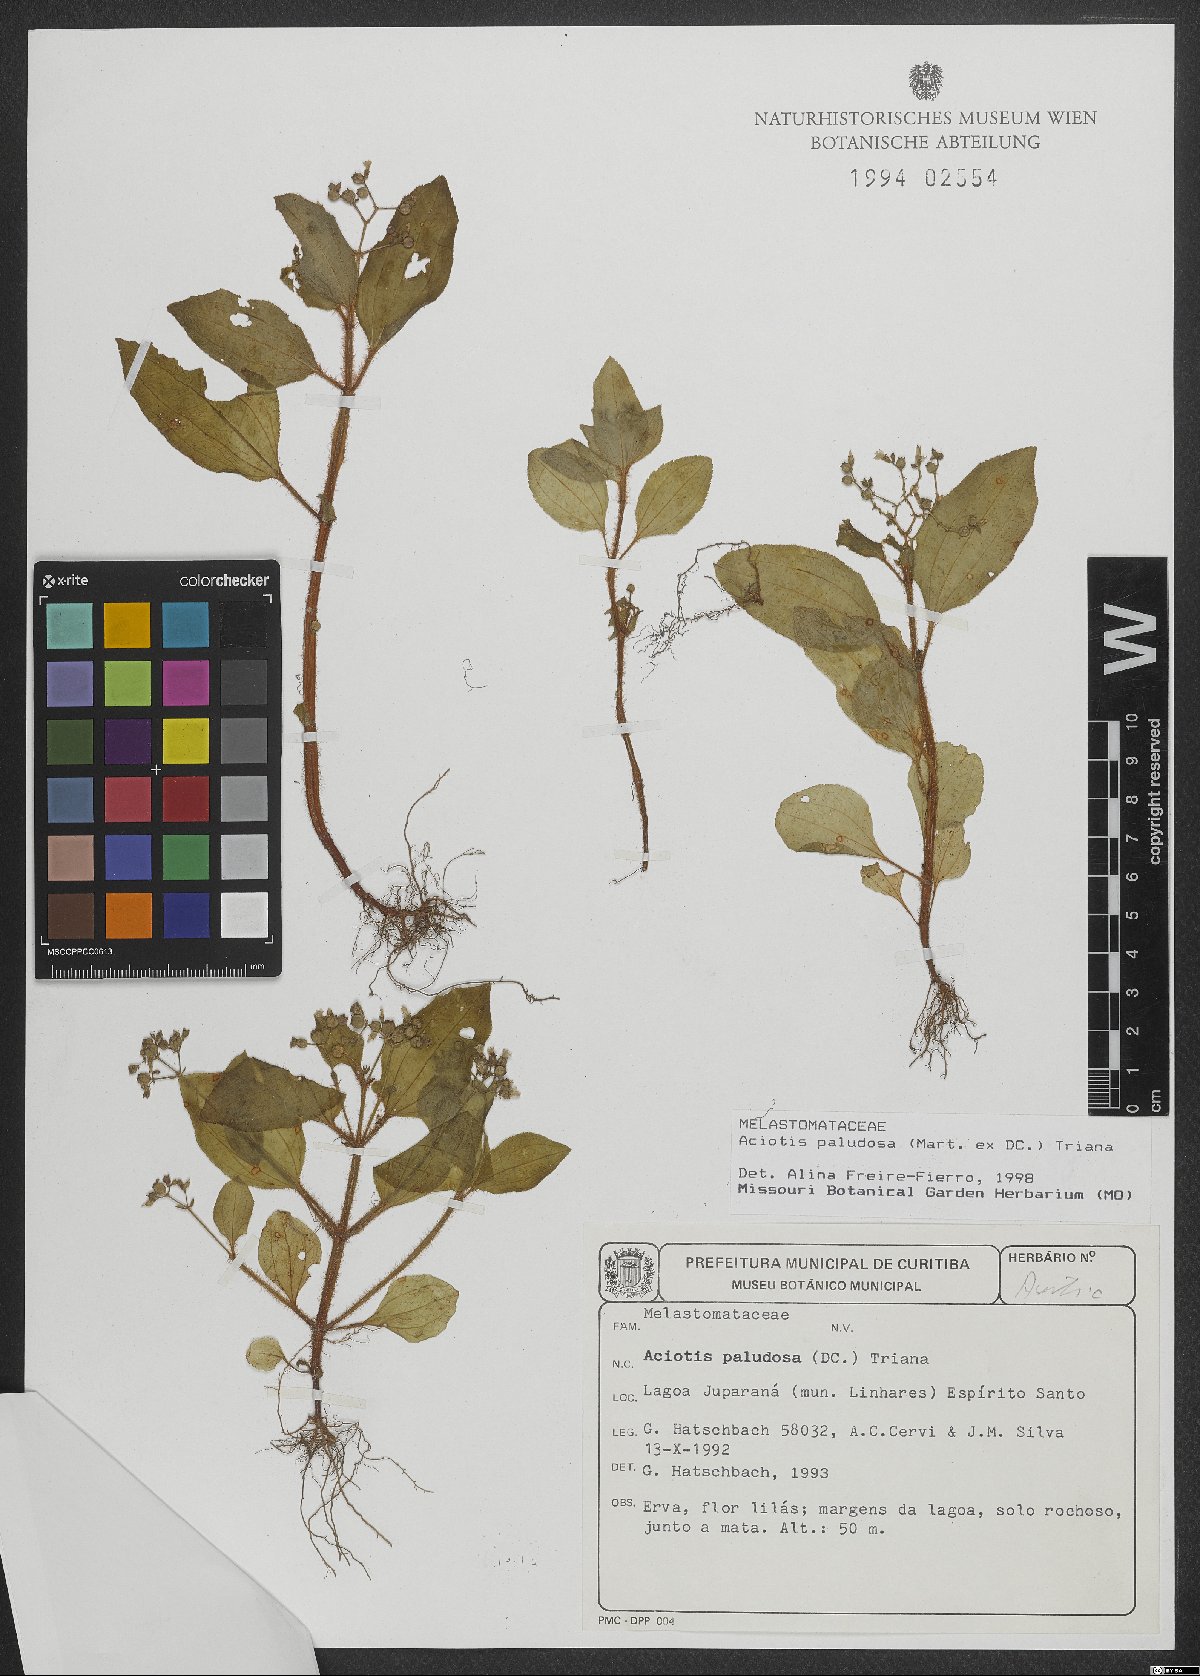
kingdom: Plantae
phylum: Tracheophyta
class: Magnoliopsida
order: Myrtales
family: Melastomataceae
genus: Aciotis
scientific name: Aciotis paludosa
